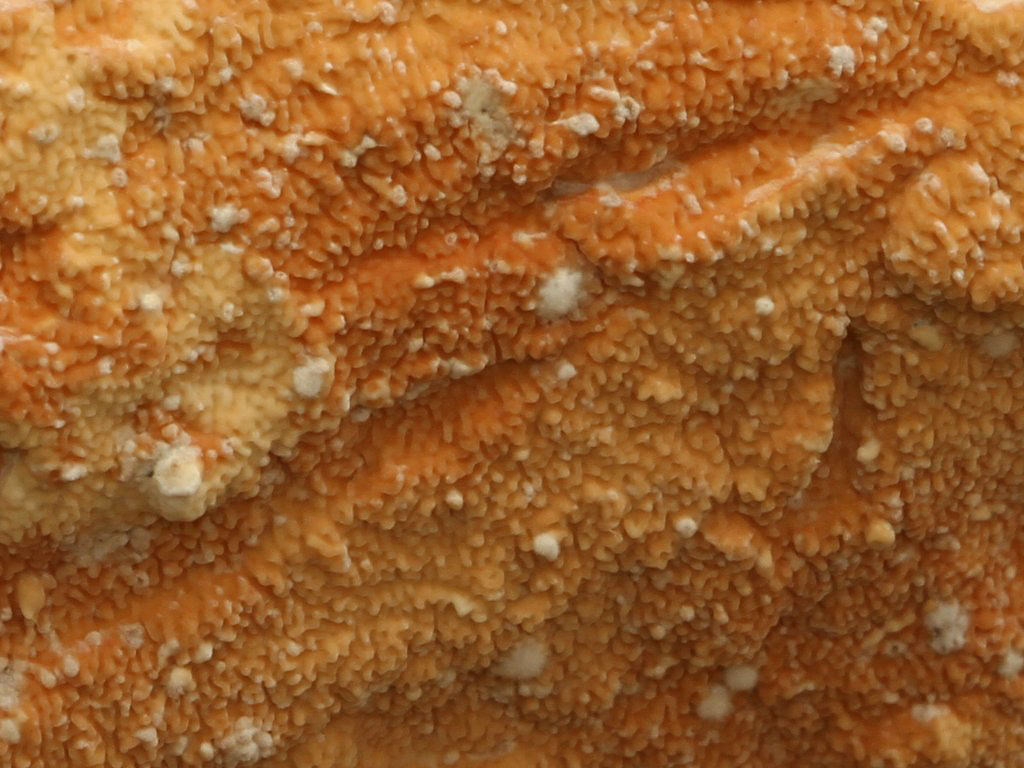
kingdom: Fungi
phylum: Basidiomycota
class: Agaricomycetes
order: Polyporales
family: Irpicaceae
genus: Byssomerulius
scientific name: Byssomerulius corium
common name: læder-åresvamp
